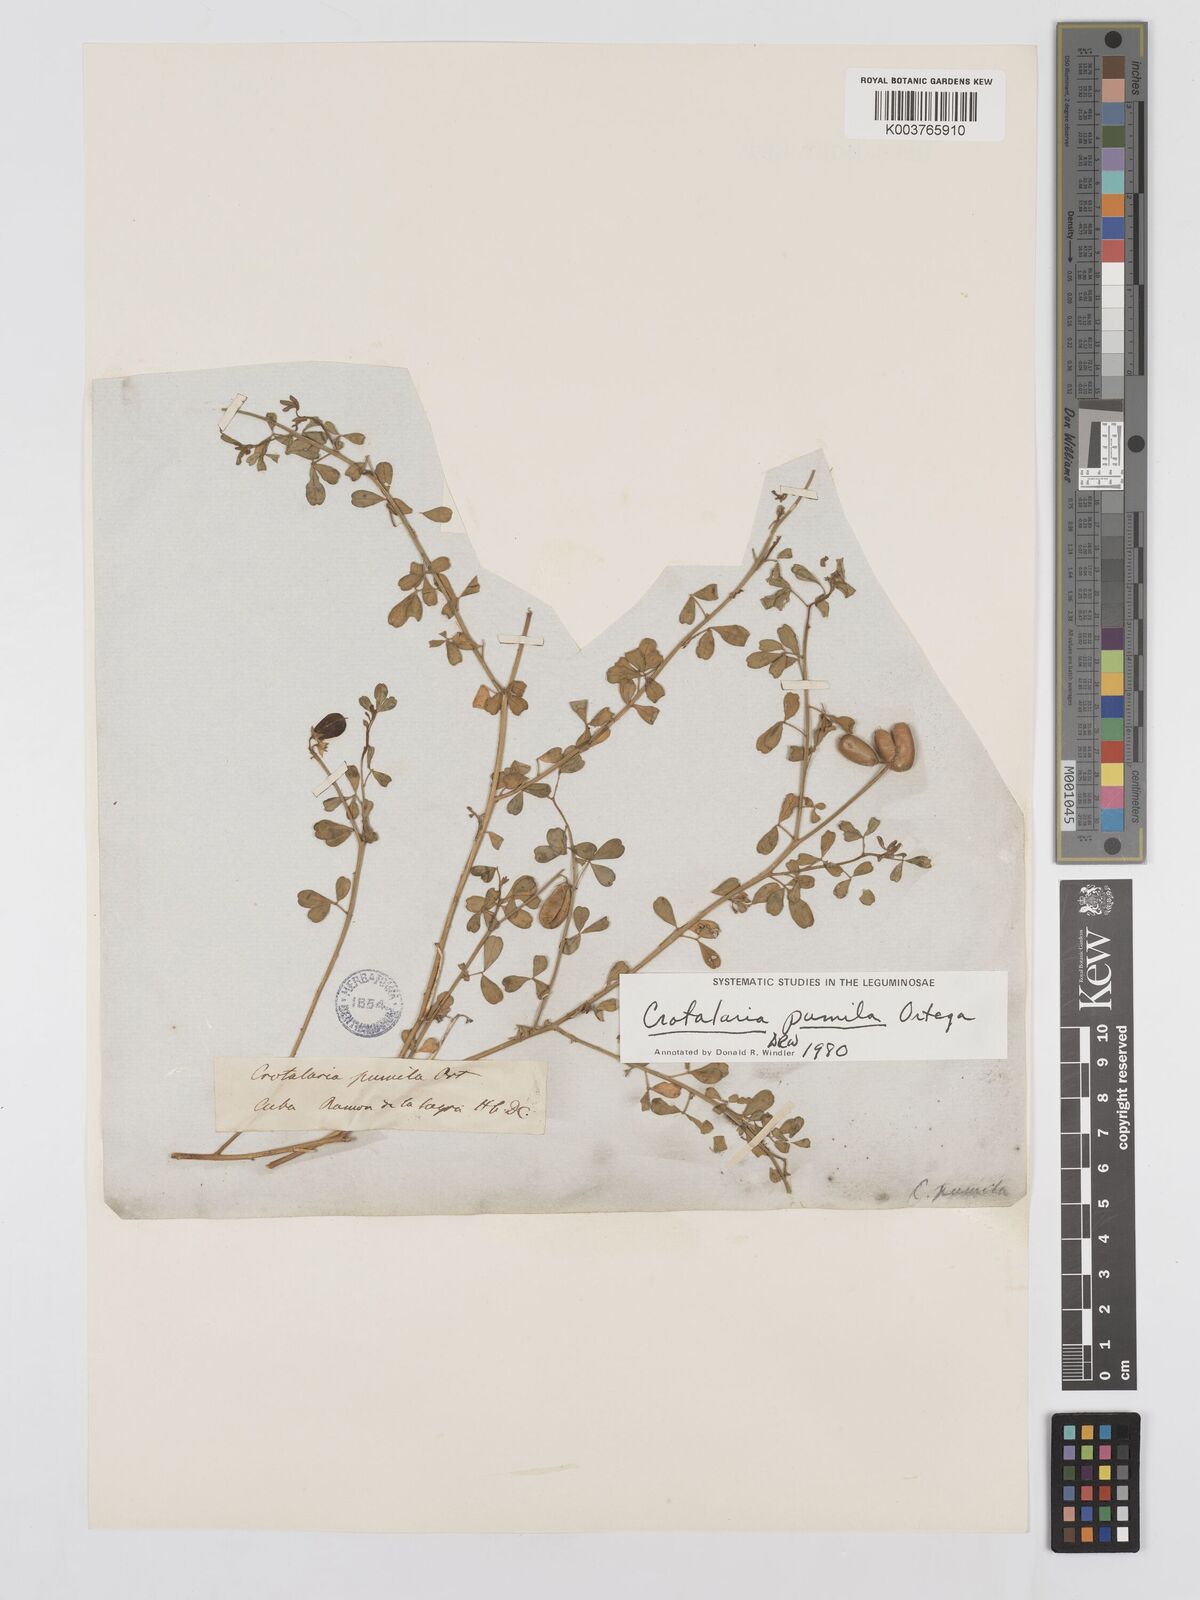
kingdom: Plantae
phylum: Tracheophyta
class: Magnoliopsida
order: Fabales
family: Fabaceae
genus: Crotalaria
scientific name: Crotalaria pumila
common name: Low rattlebox
